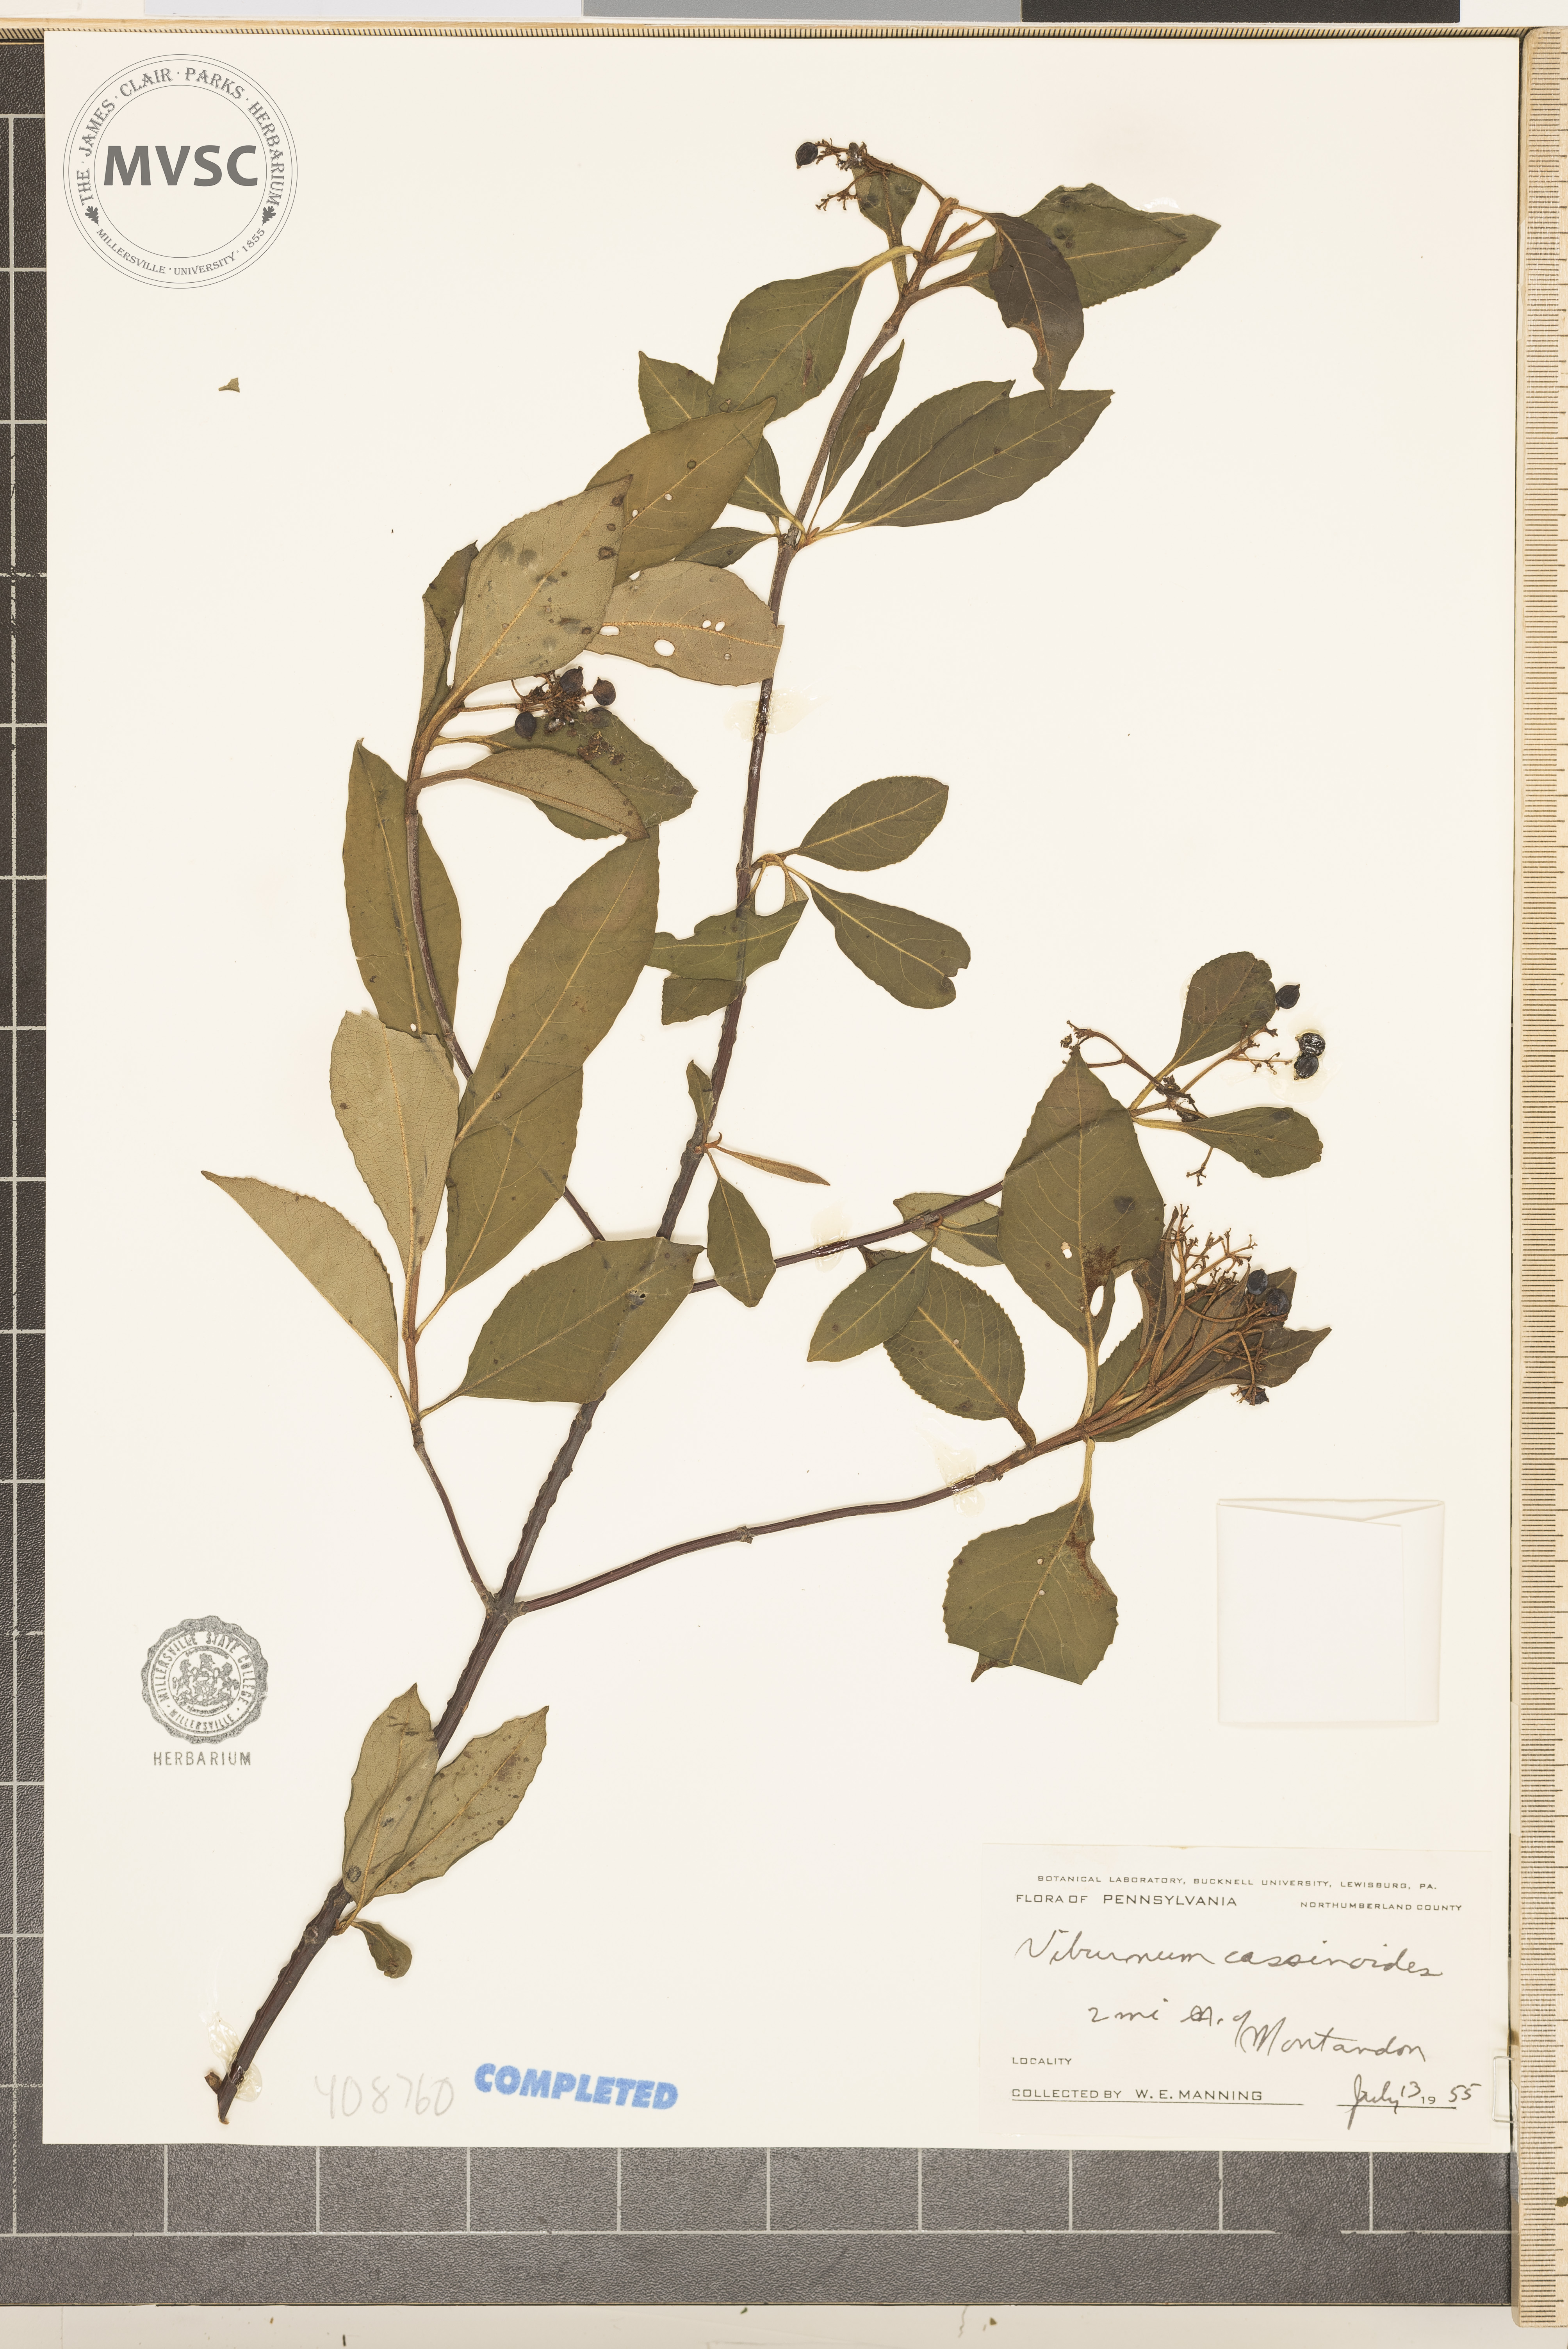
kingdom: Plantae
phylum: Tracheophyta
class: Magnoliopsida
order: Dipsacales
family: Viburnaceae
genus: Viburnum
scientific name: Viburnum cassinoides
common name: Swamp haw
